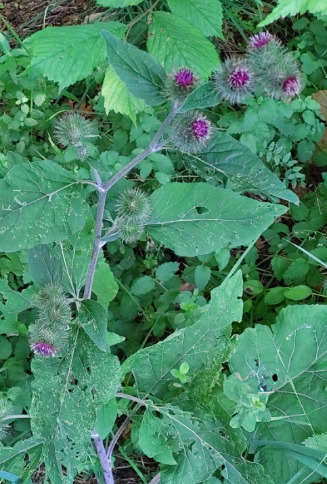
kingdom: Plantae
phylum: Tracheophyta
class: Magnoliopsida
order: Asterales
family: Asteraceae
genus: Arctium
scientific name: Arctium nemorosum
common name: Skov-burre
